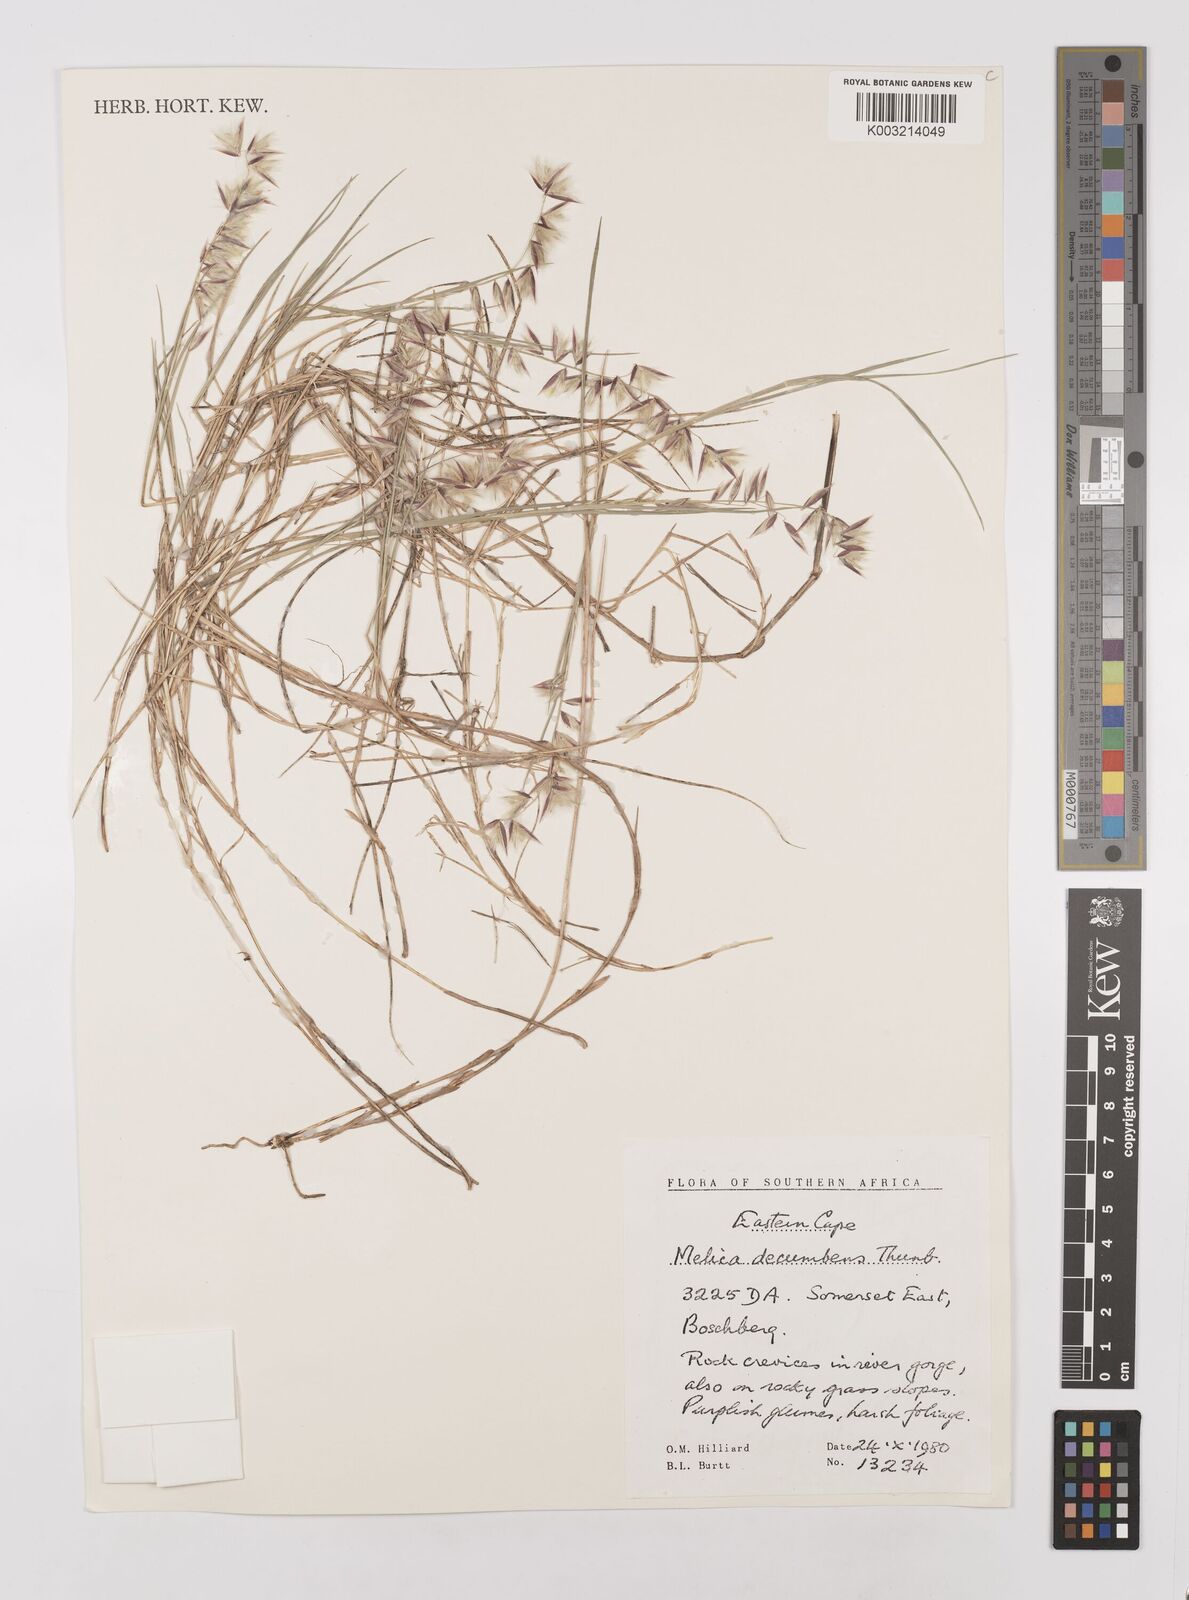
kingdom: Plantae
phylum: Tracheophyta
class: Liliopsida
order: Poales
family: Poaceae
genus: Melica
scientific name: Melica dendroides
